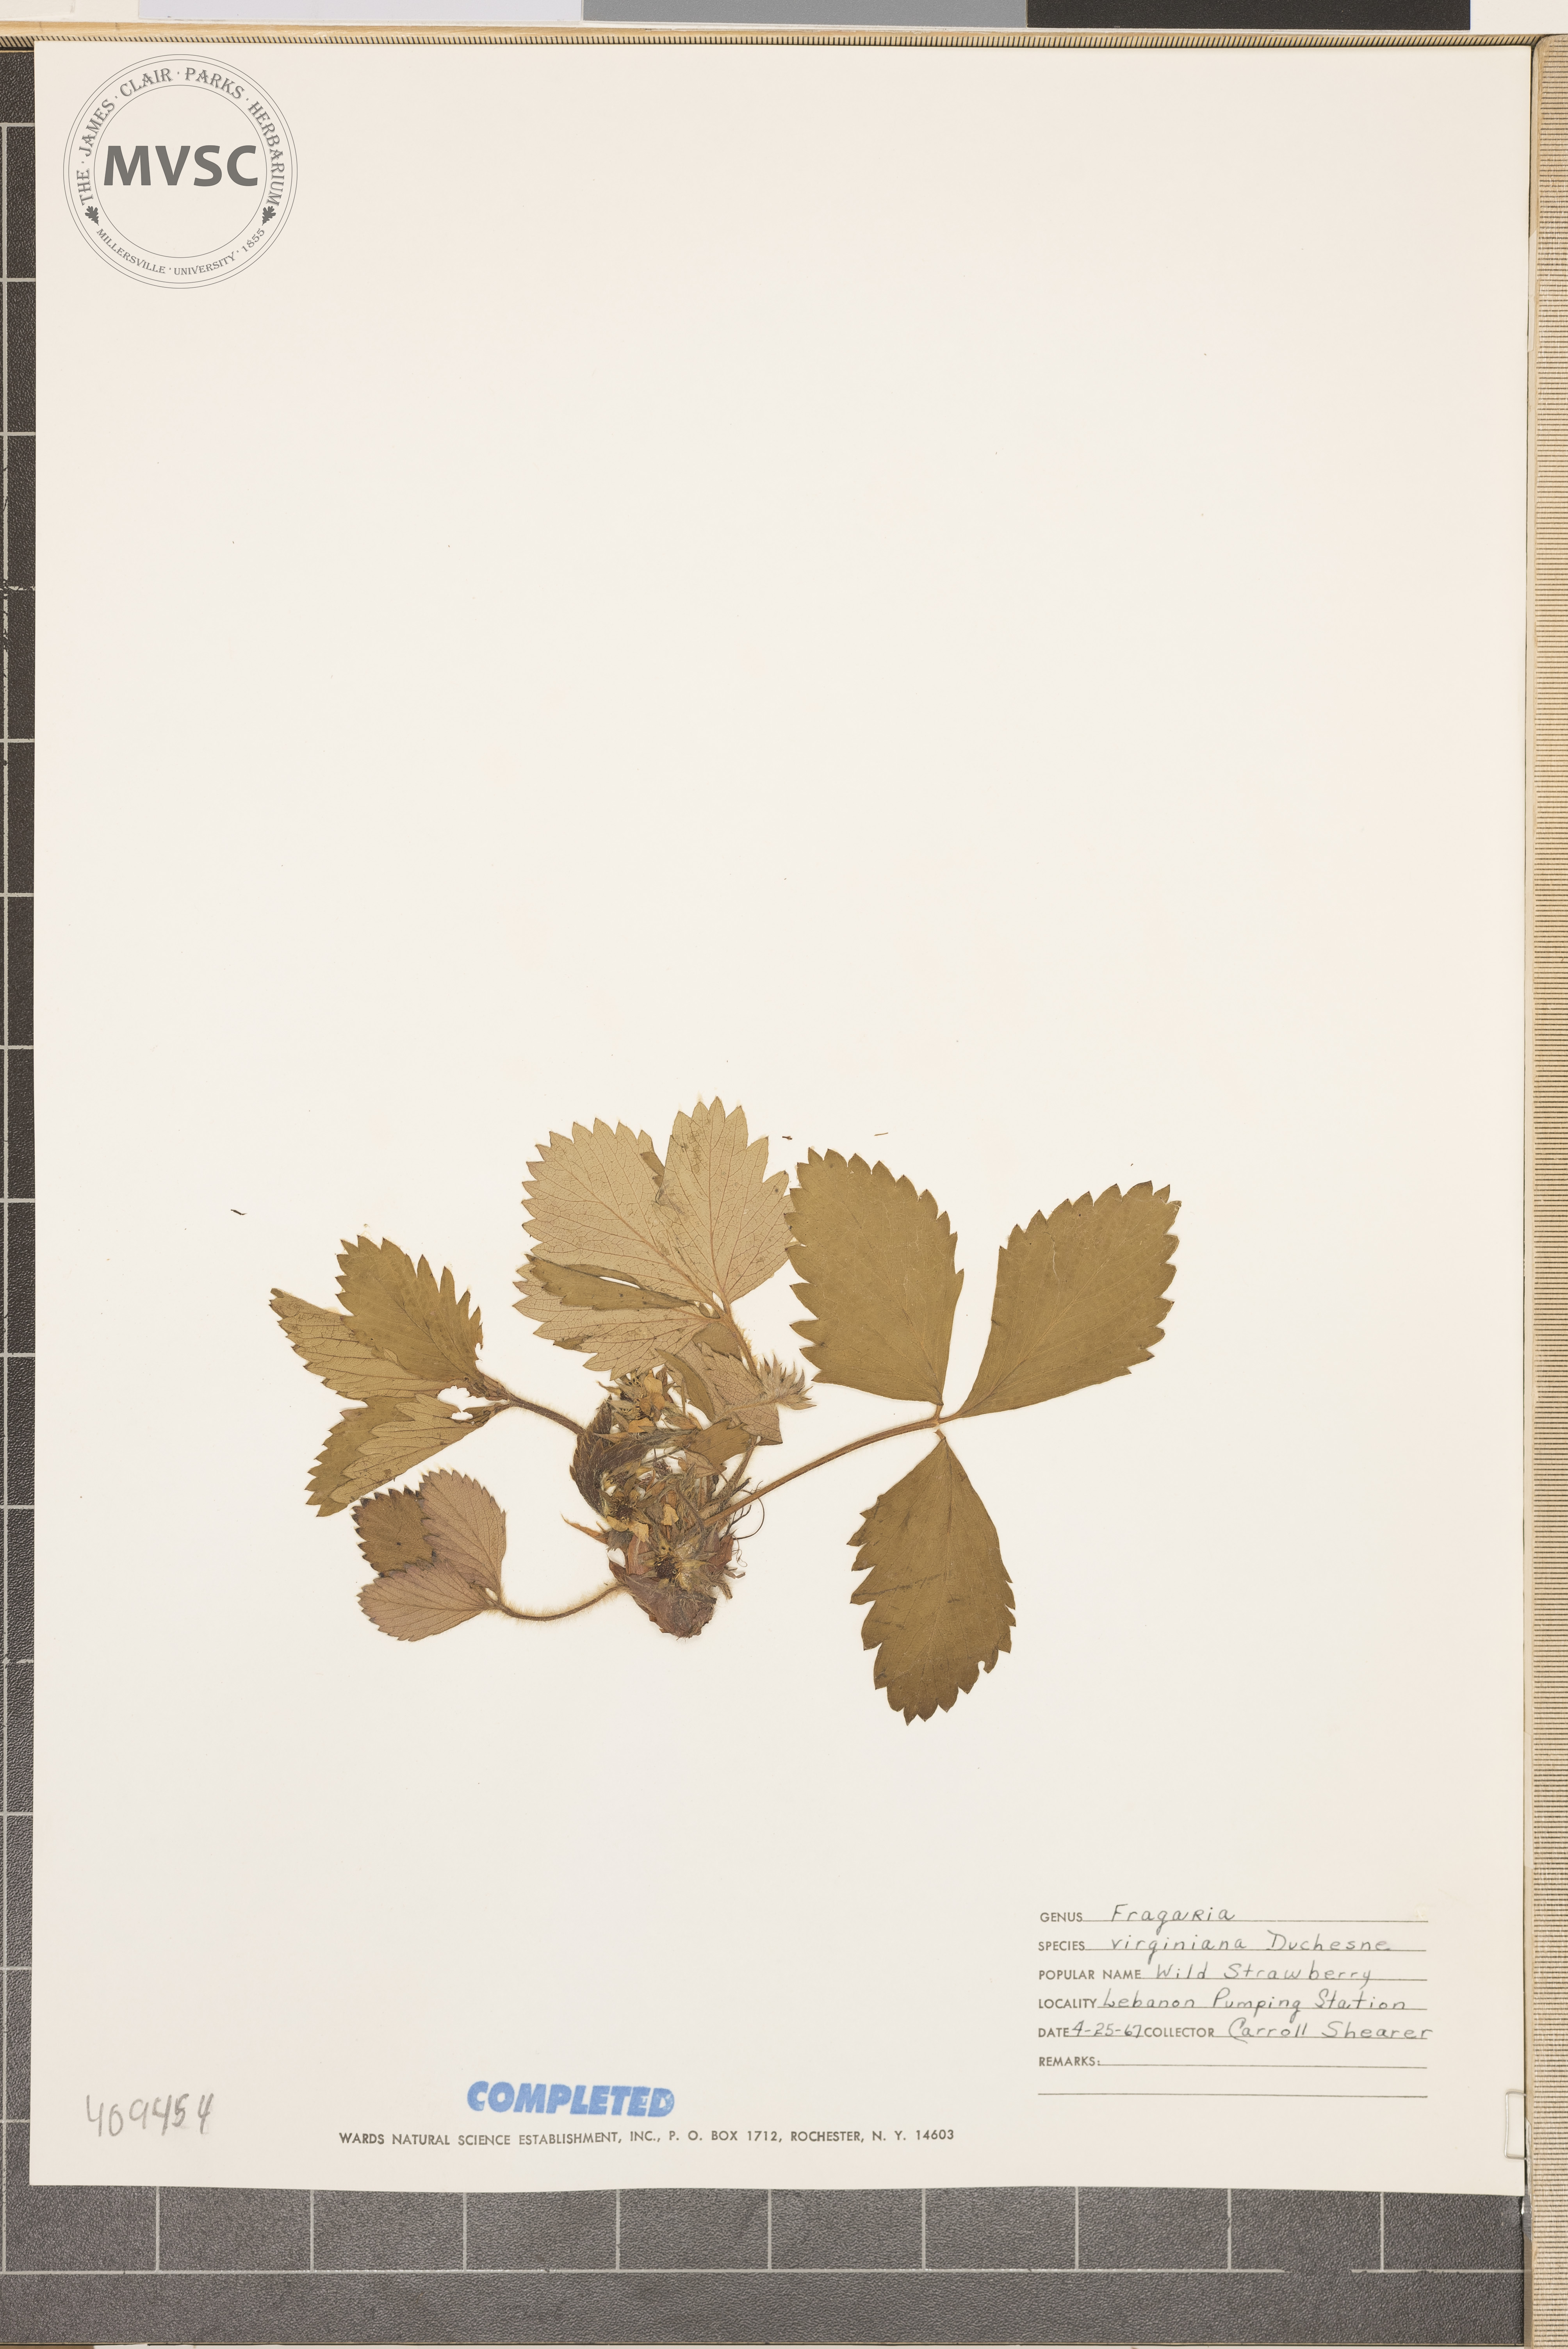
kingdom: Plantae
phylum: Tracheophyta
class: Magnoliopsida
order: Rosales
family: Rosaceae
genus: Fragaria
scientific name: Fragaria virginiana
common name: Thickleaved wild strawberry
